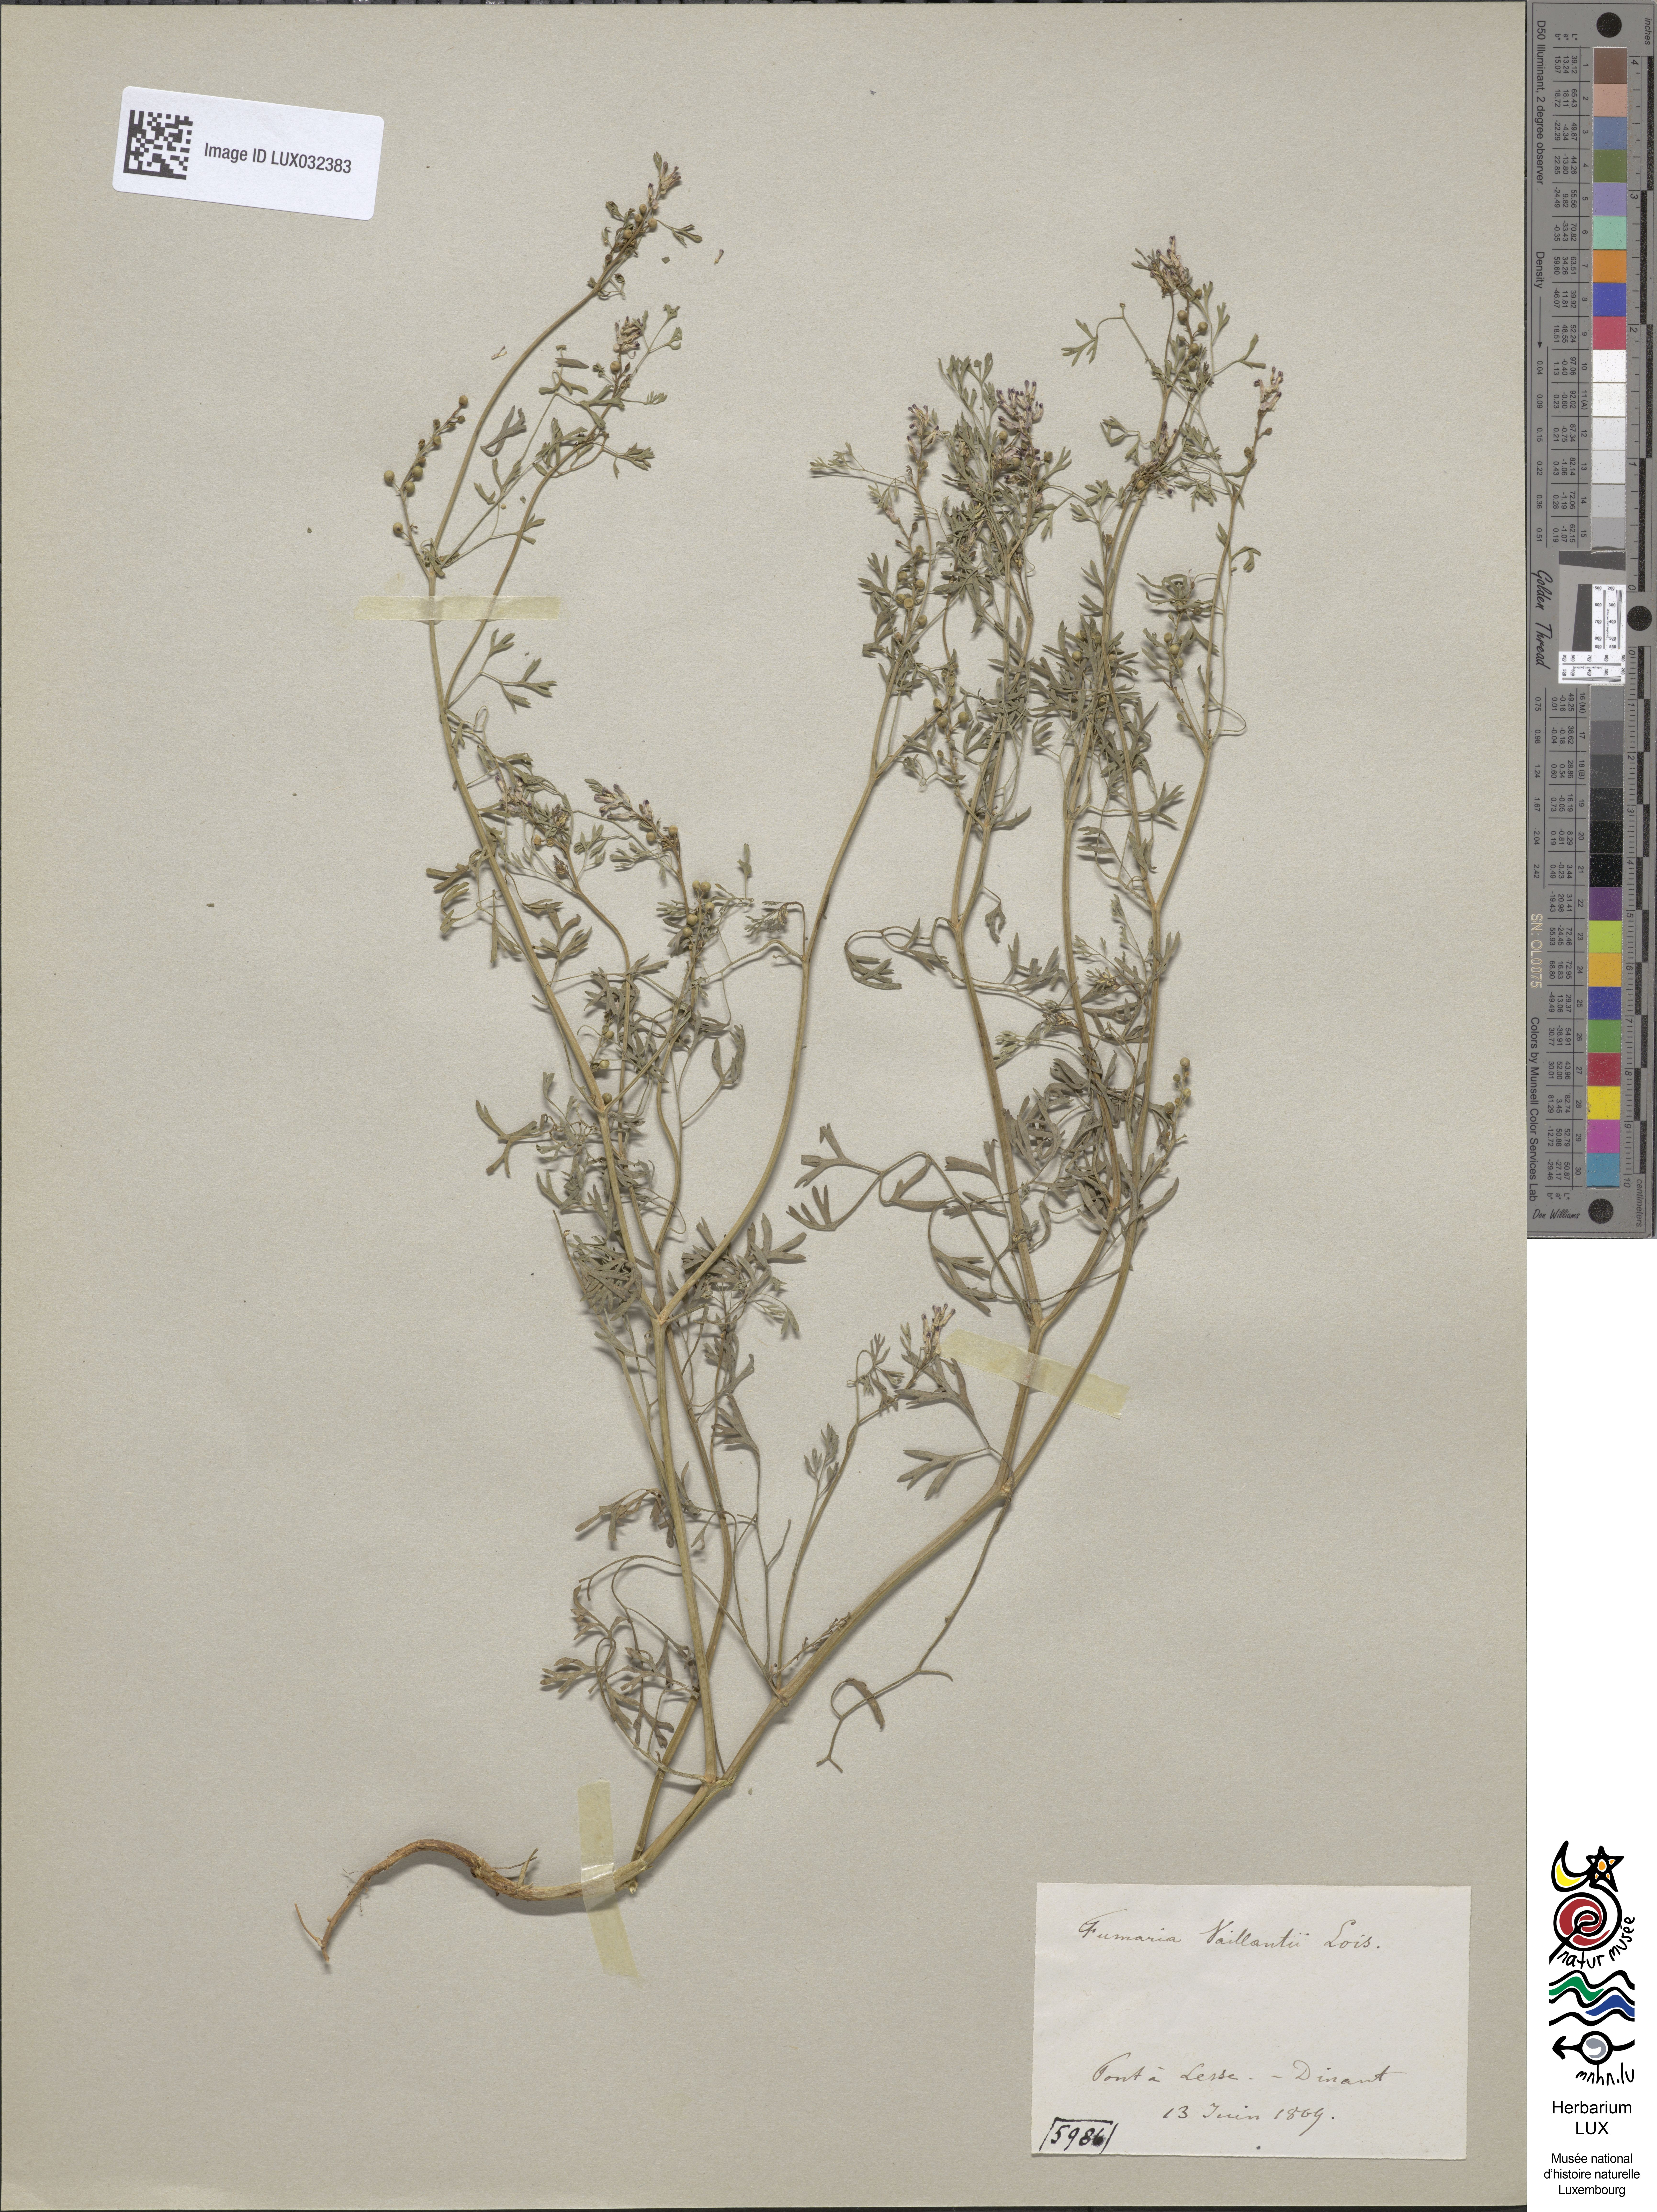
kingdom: Plantae
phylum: Tracheophyta
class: Magnoliopsida
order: Ranunculales
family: Papaveraceae
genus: Fumaria
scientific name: Fumaria vaillantii
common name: Few-flowered fumitory
